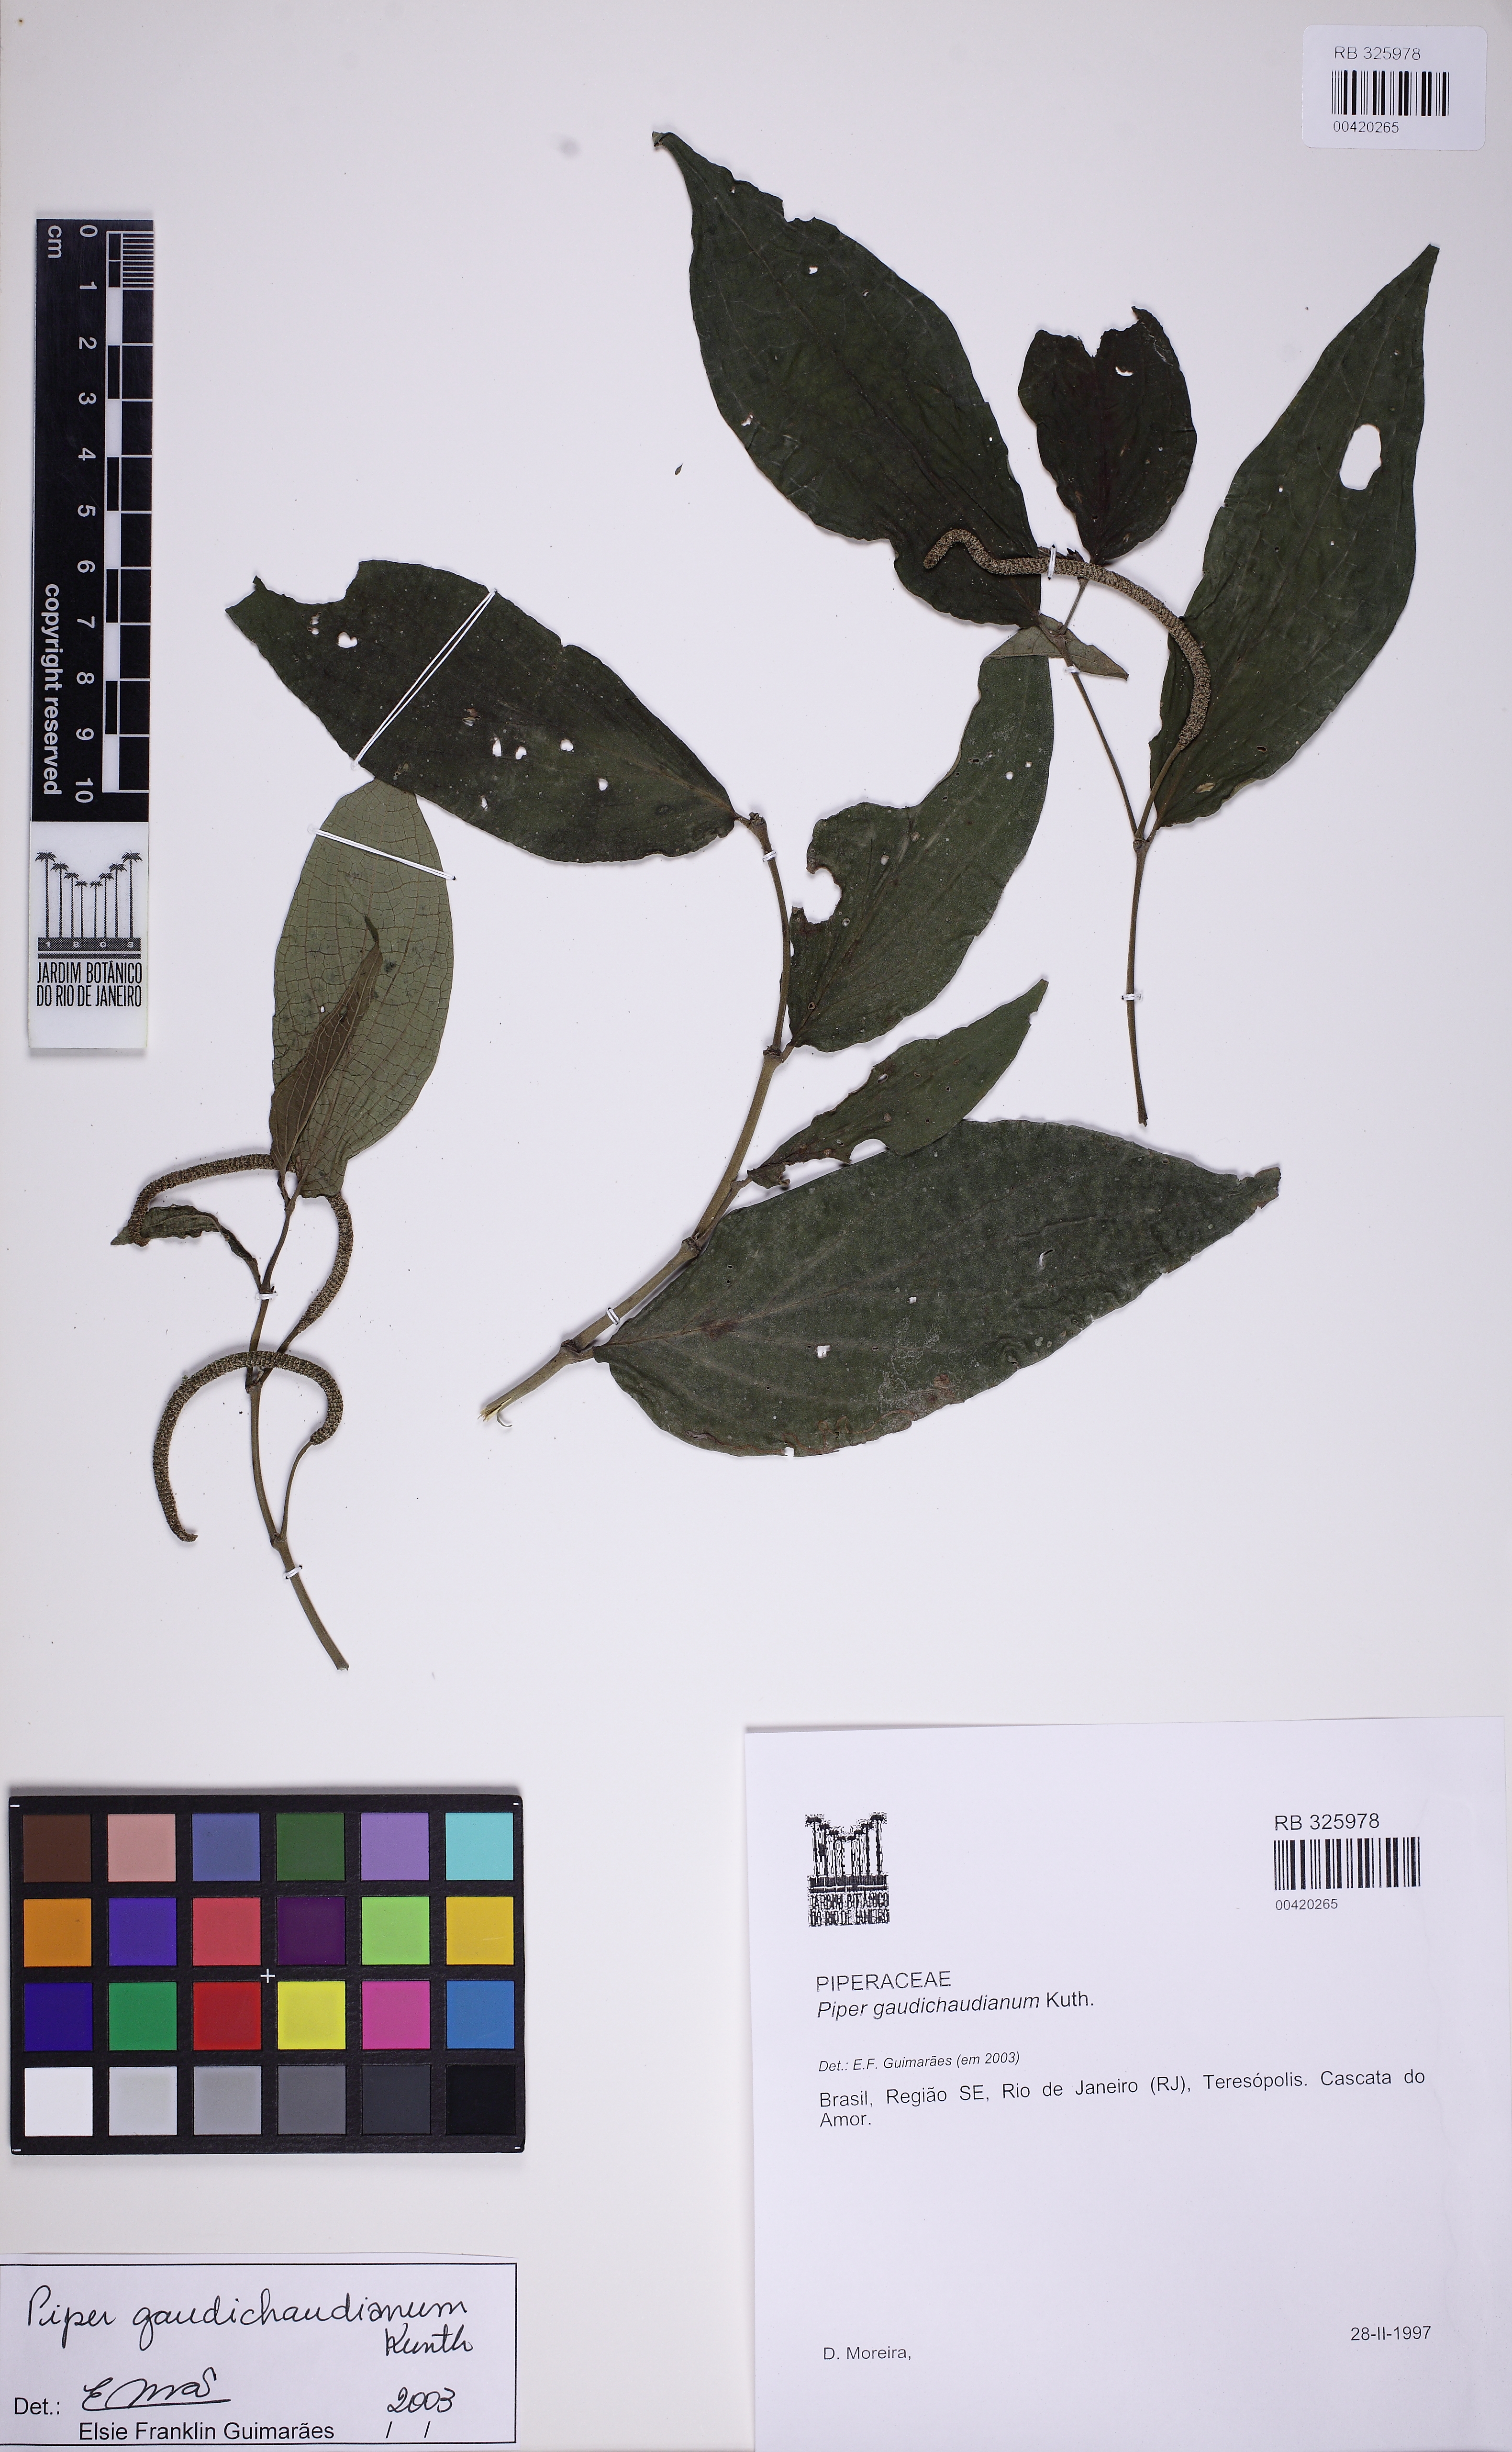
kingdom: Plantae
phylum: Tracheophyta
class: Magnoliopsida
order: Piperales
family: Piperaceae
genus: Piper
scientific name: Piper gaudichaudianum
